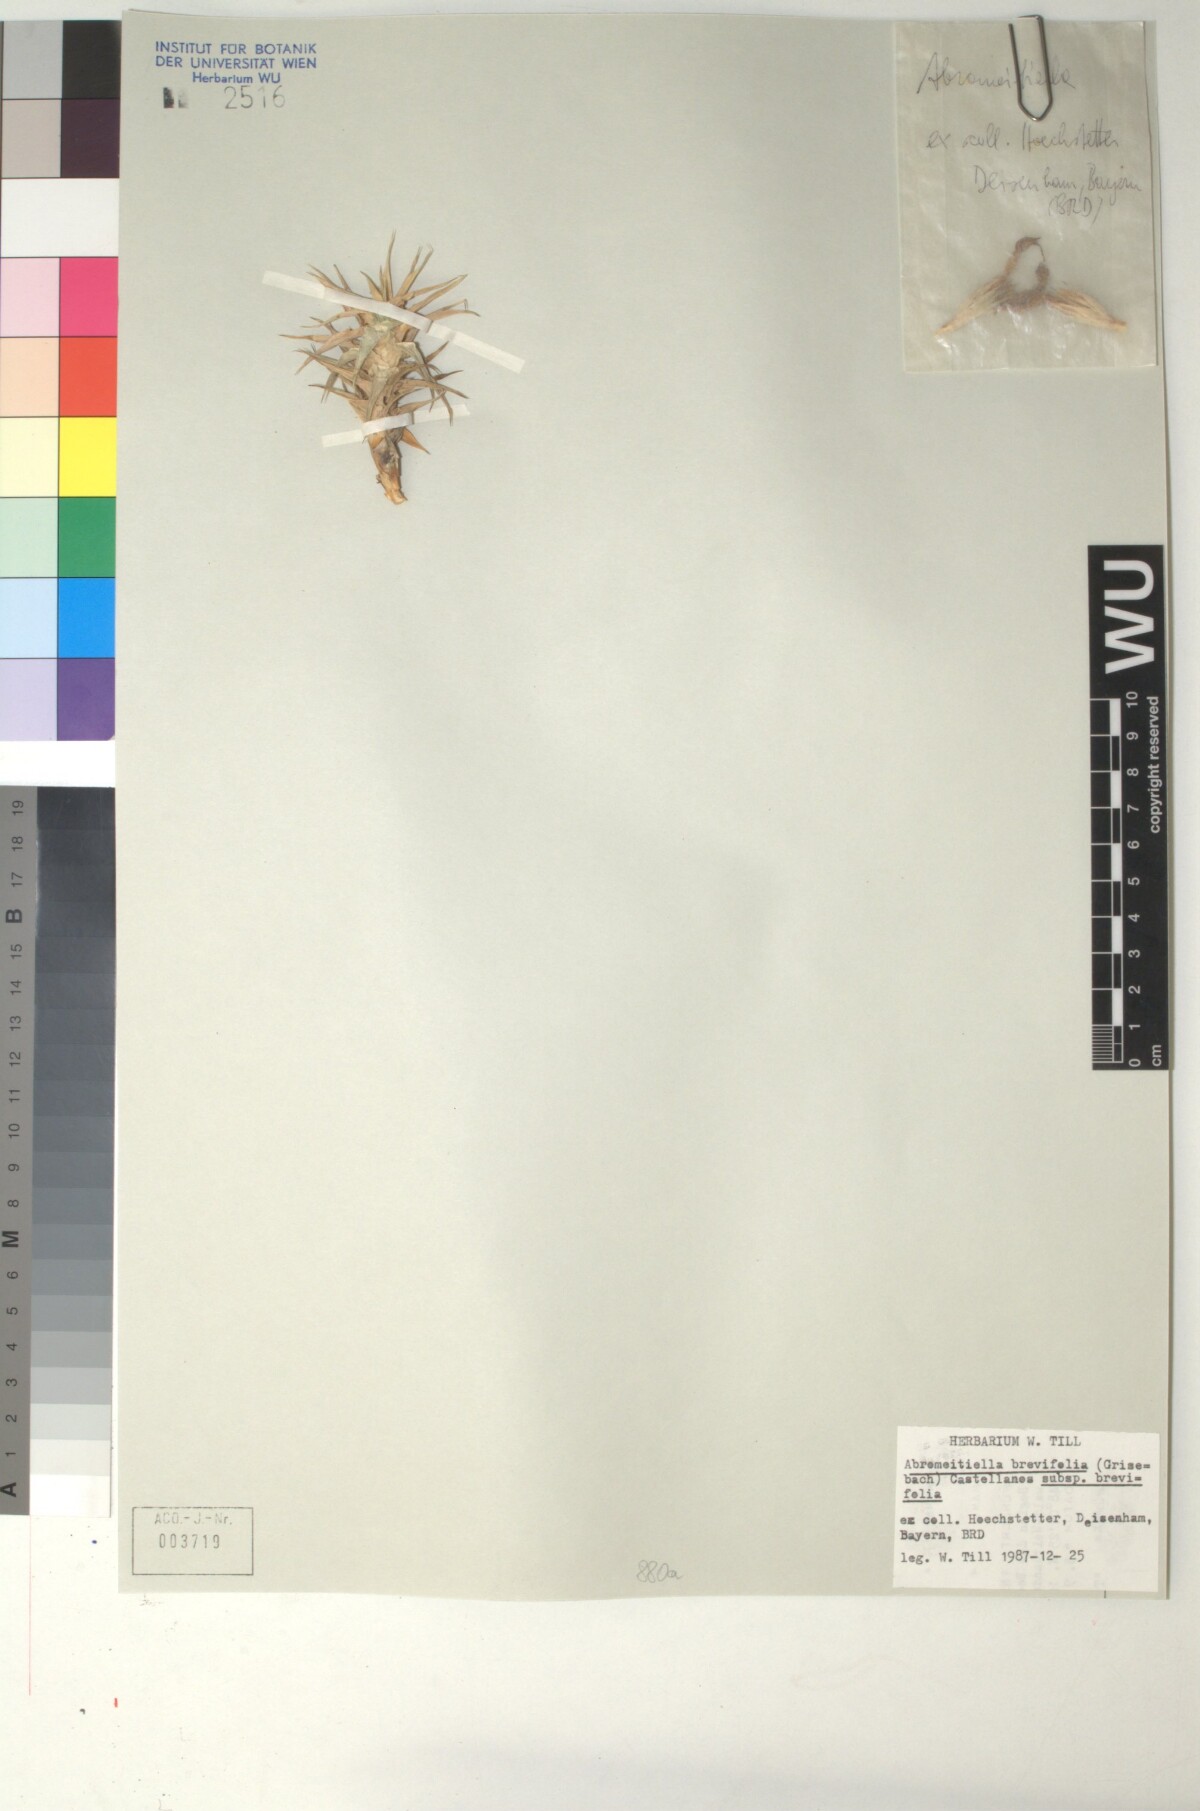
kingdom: Plantae
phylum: Tracheophyta
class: Liliopsida
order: Poales
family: Bromeliaceae
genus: Deuterocohnia
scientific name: Deuterocohnia brevifolia
